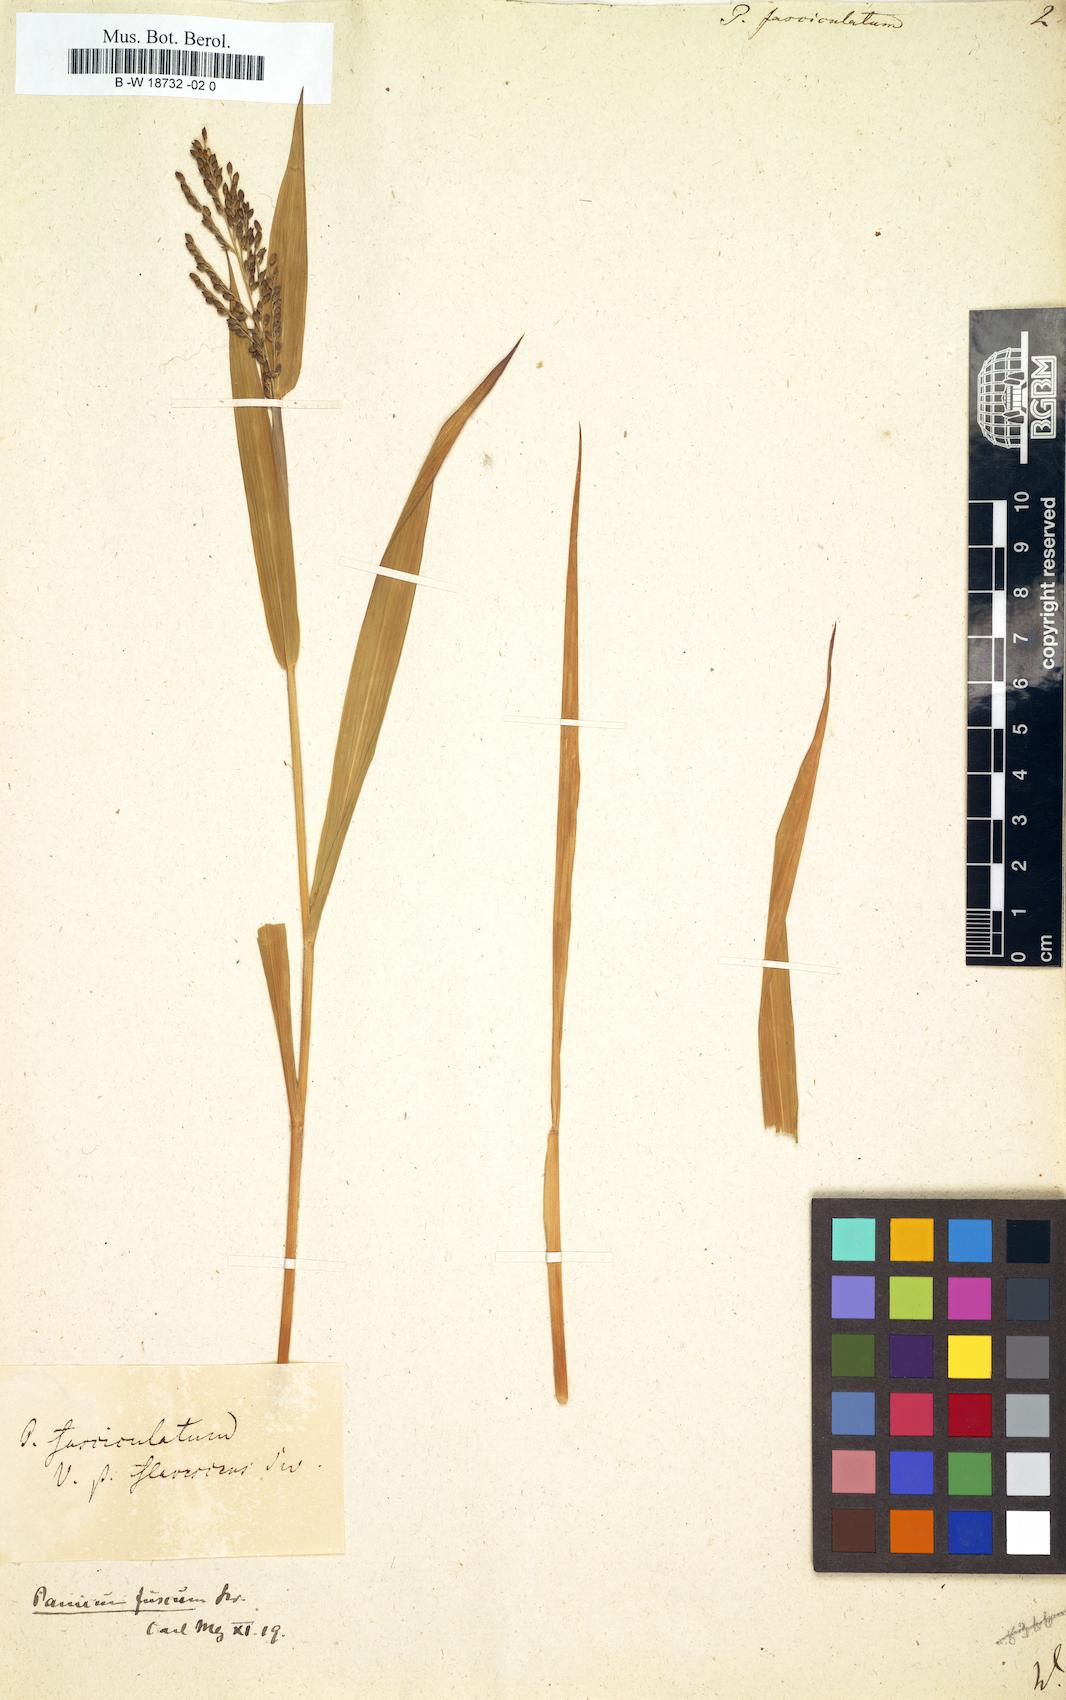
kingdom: Plantae
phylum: Tracheophyta
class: Liliopsida
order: Poales
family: Poaceae
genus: Panicum
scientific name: Panicum fasciculatum
